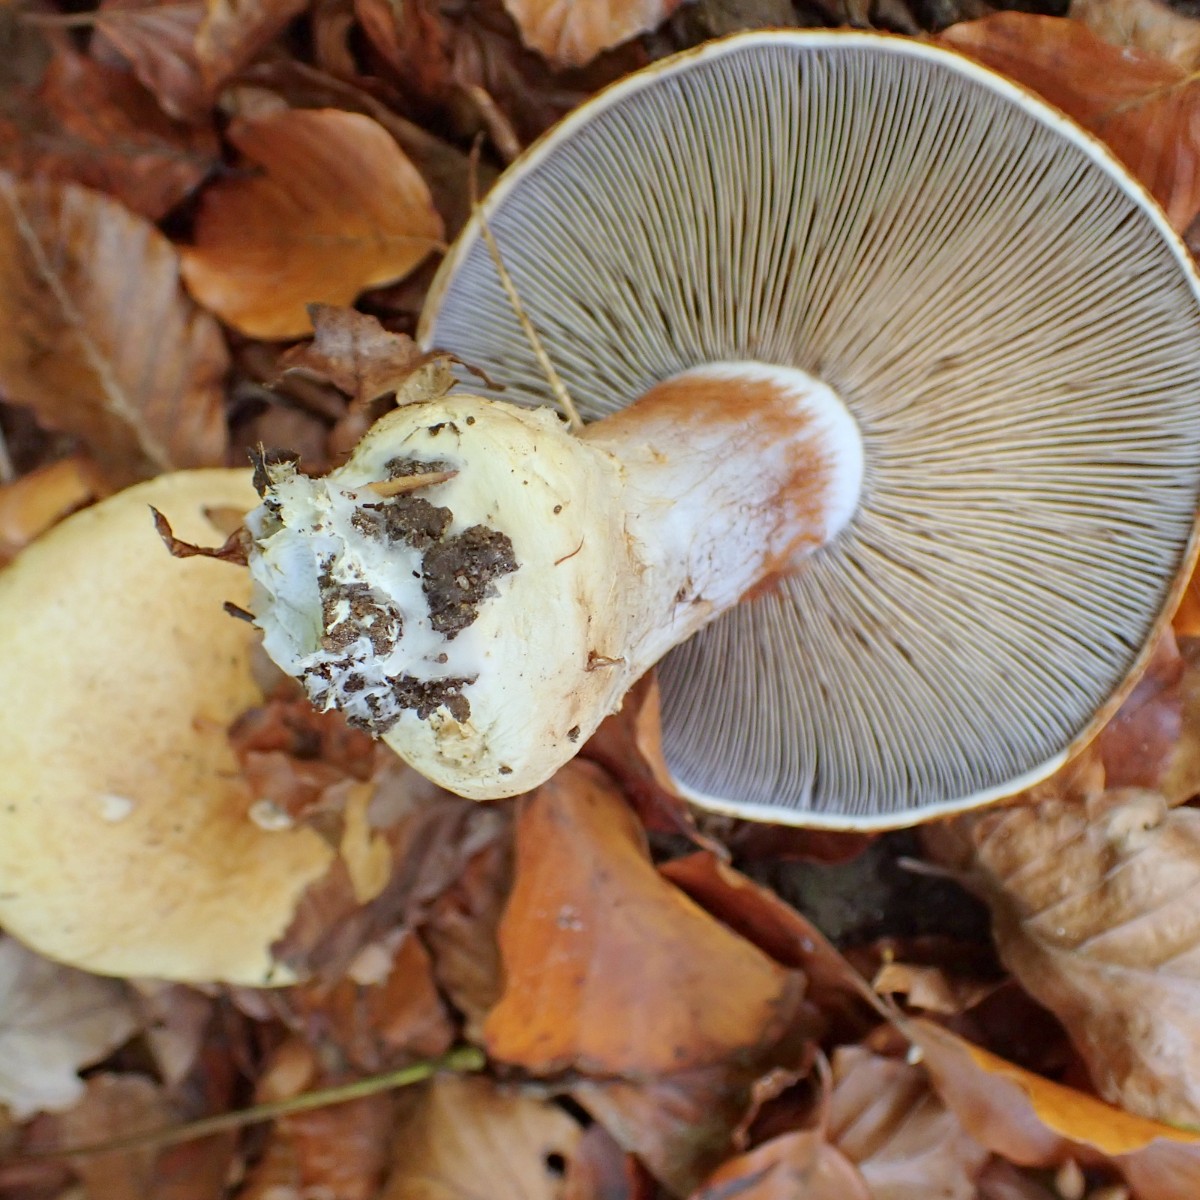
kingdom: Fungi
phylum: Basidiomycota
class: Agaricomycetes
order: Agaricales
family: Cortinariaceae
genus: Cortinarius
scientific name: Cortinarius anserinus
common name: bøge-slørhat
